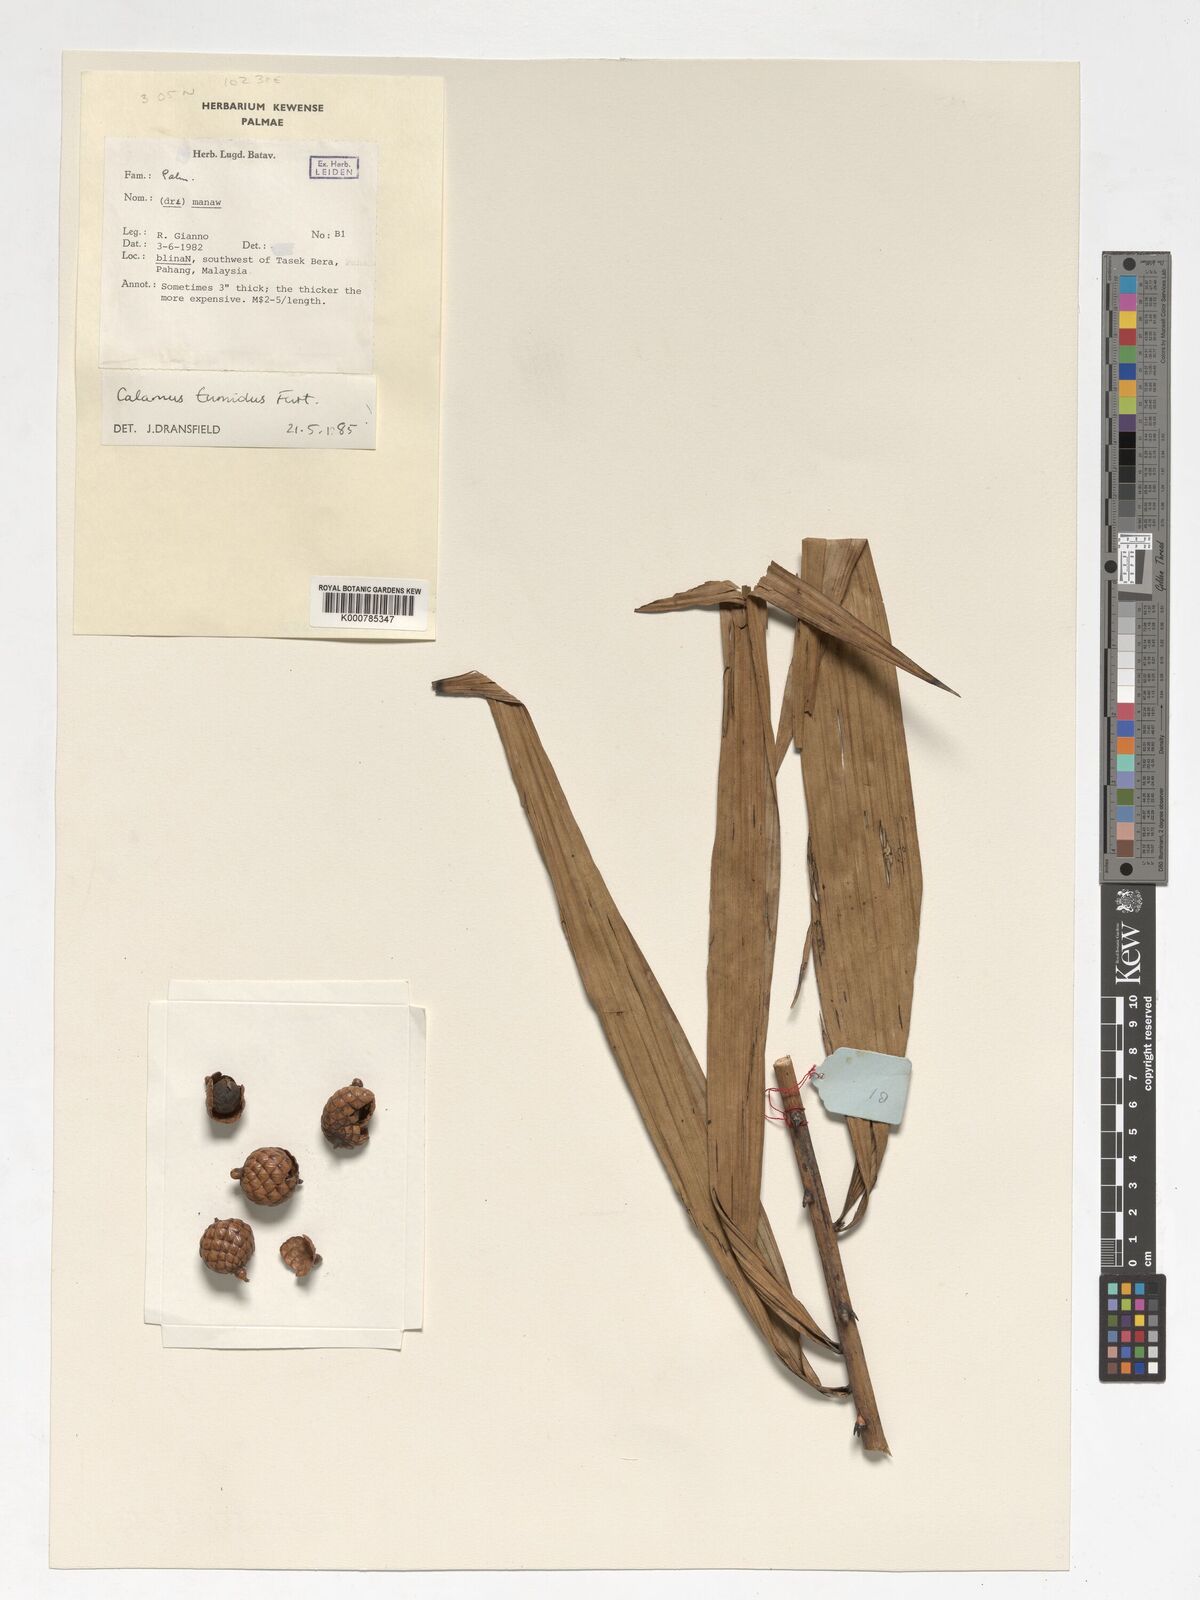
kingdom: Plantae
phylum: Tracheophyta
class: Liliopsida
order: Arecales
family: Arecaceae
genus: Calamus
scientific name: Calamus tumidus
